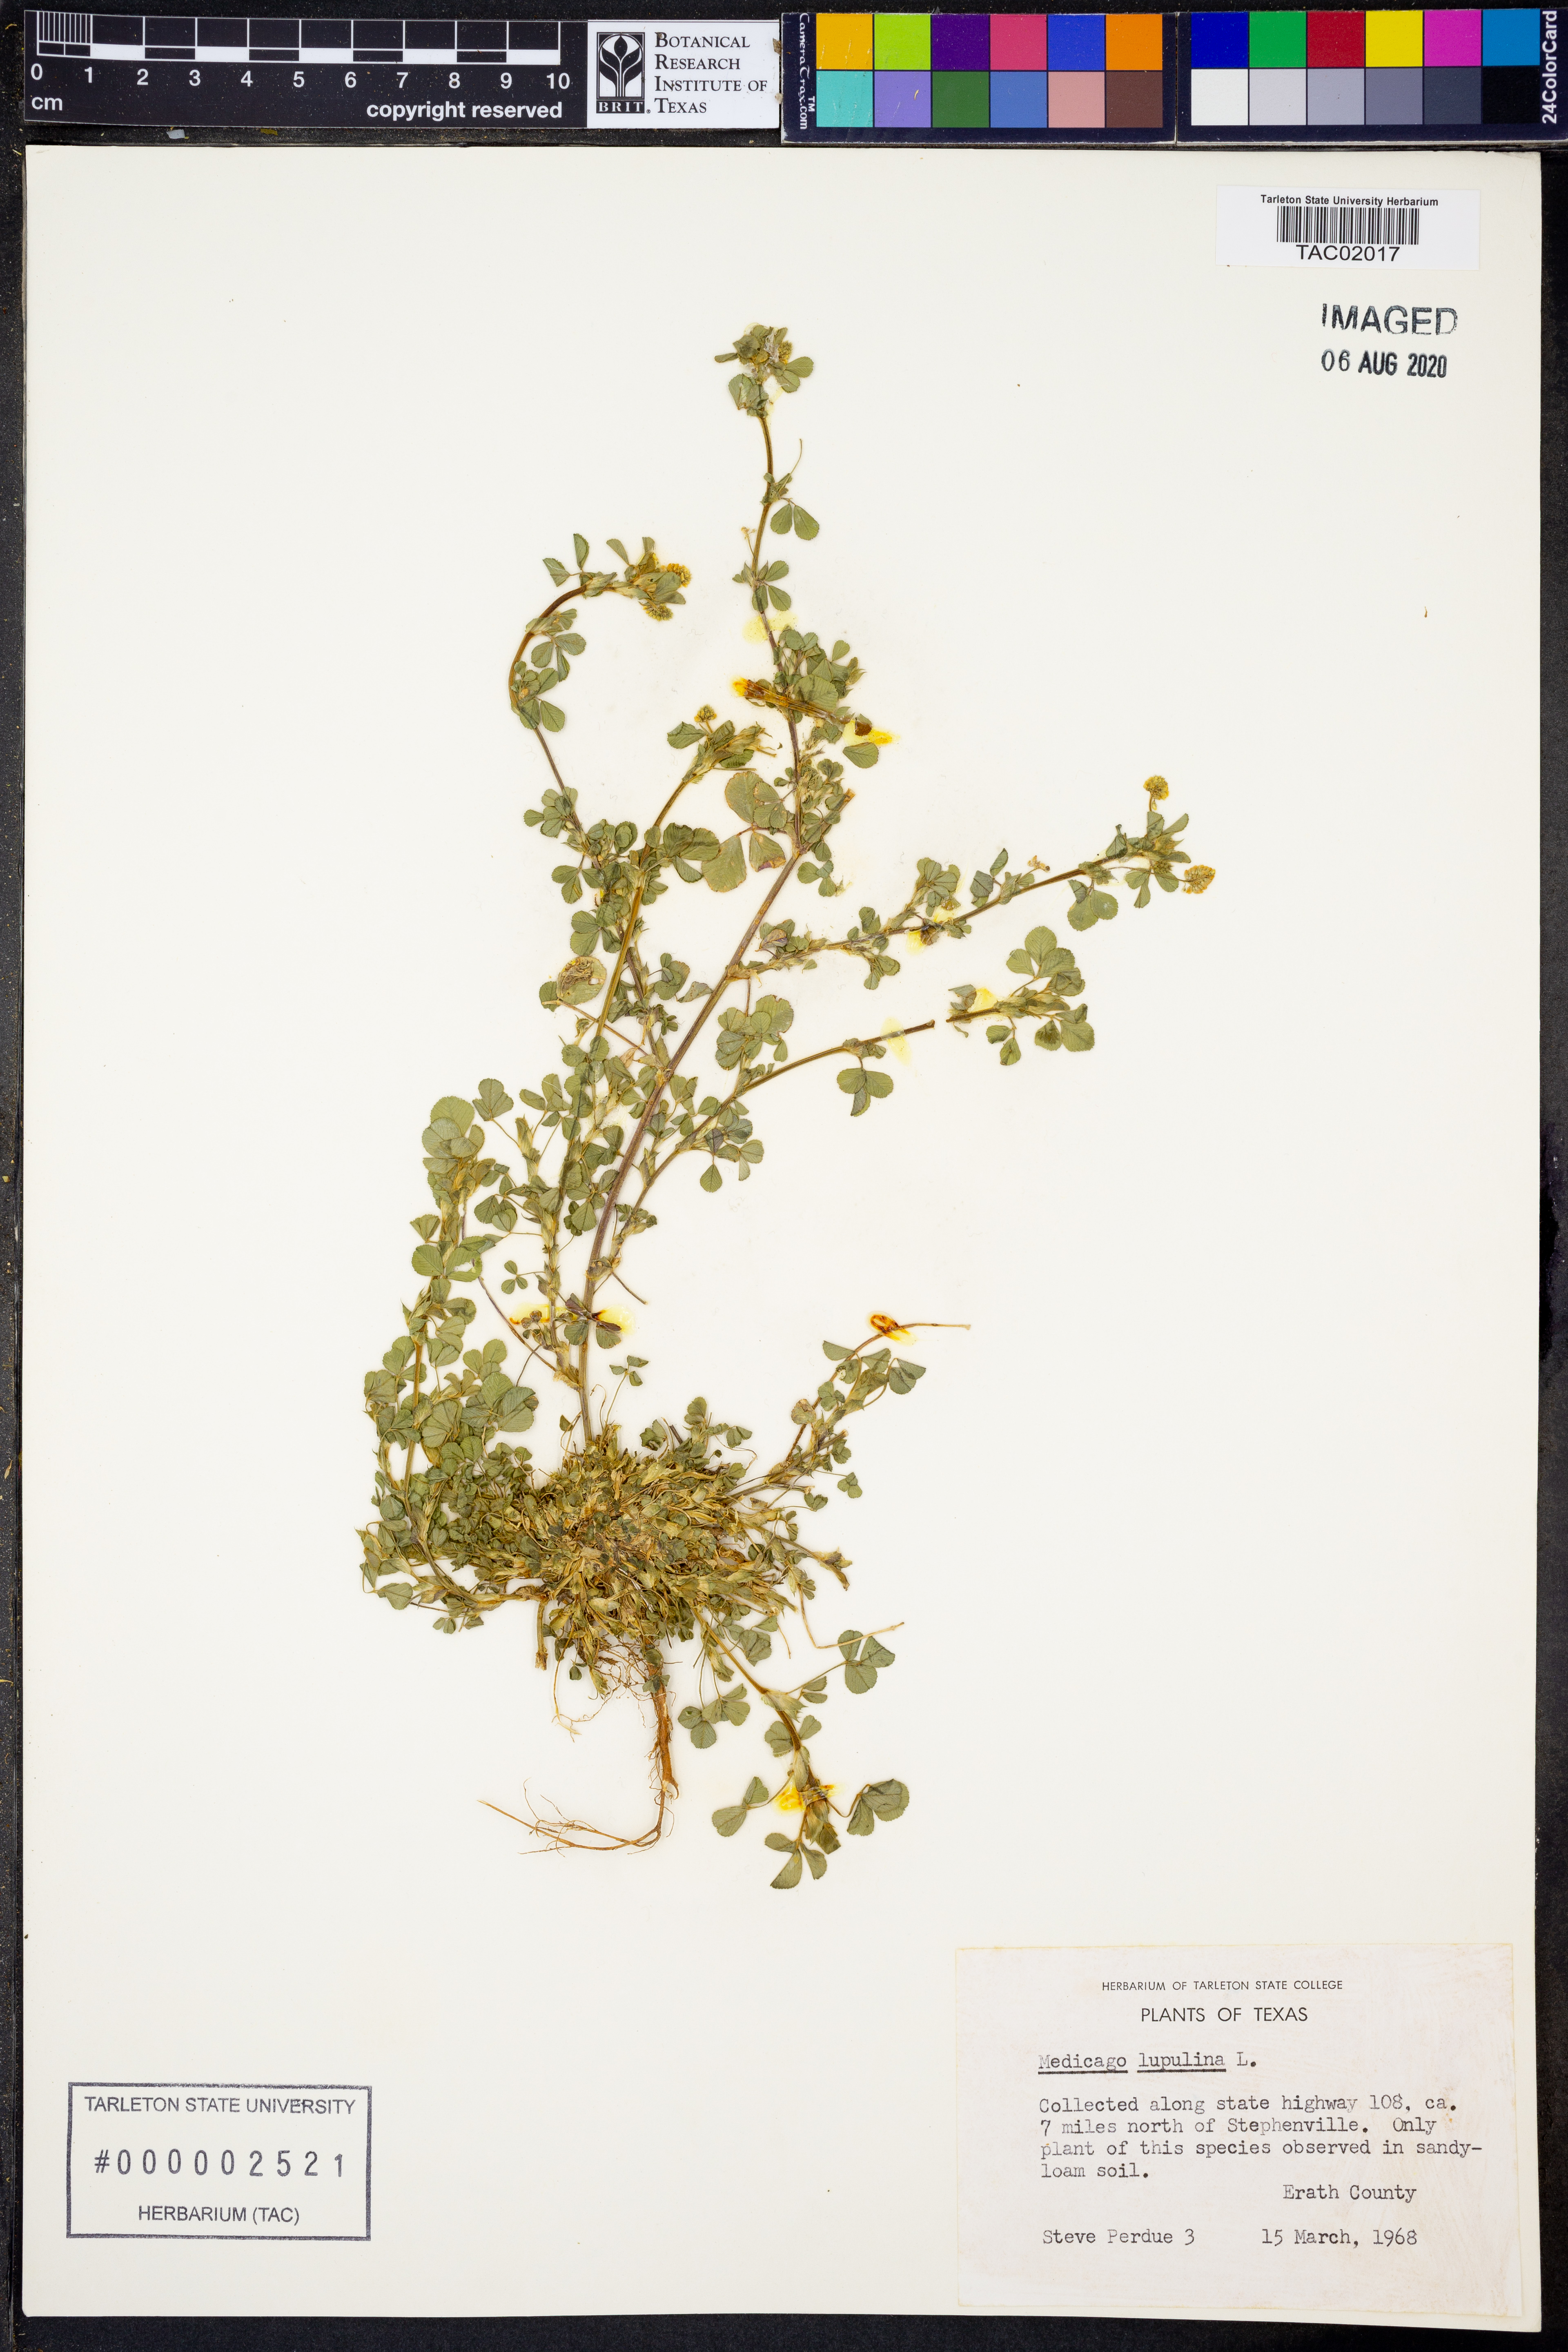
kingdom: Plantae
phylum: Tracheophyta
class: Magnoliopsida
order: Fabales
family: Fabaceae
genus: Medicago
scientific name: Medicago lupulina
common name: Black medick
